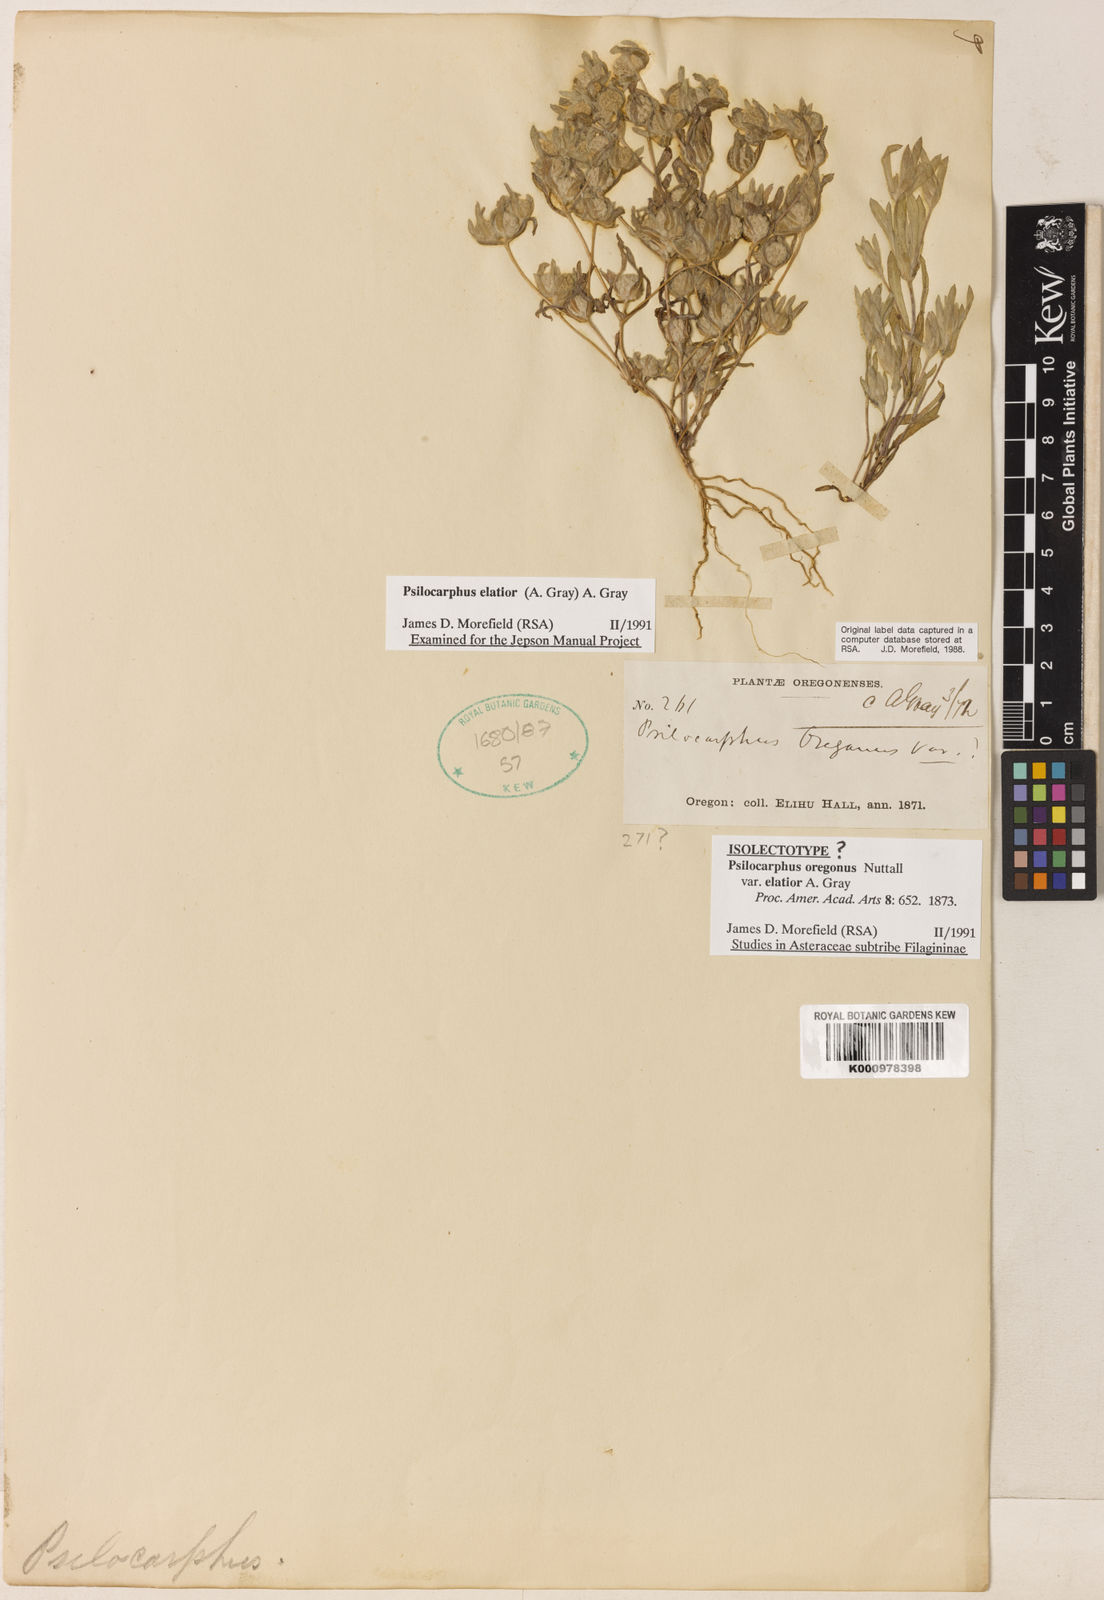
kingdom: Plantae
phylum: Tracheophyta
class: Magnoliopsida
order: Asterales
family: Asteraceae
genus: Psilocarphus
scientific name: Psilocarphus elatior
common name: Meadow woollyheads
